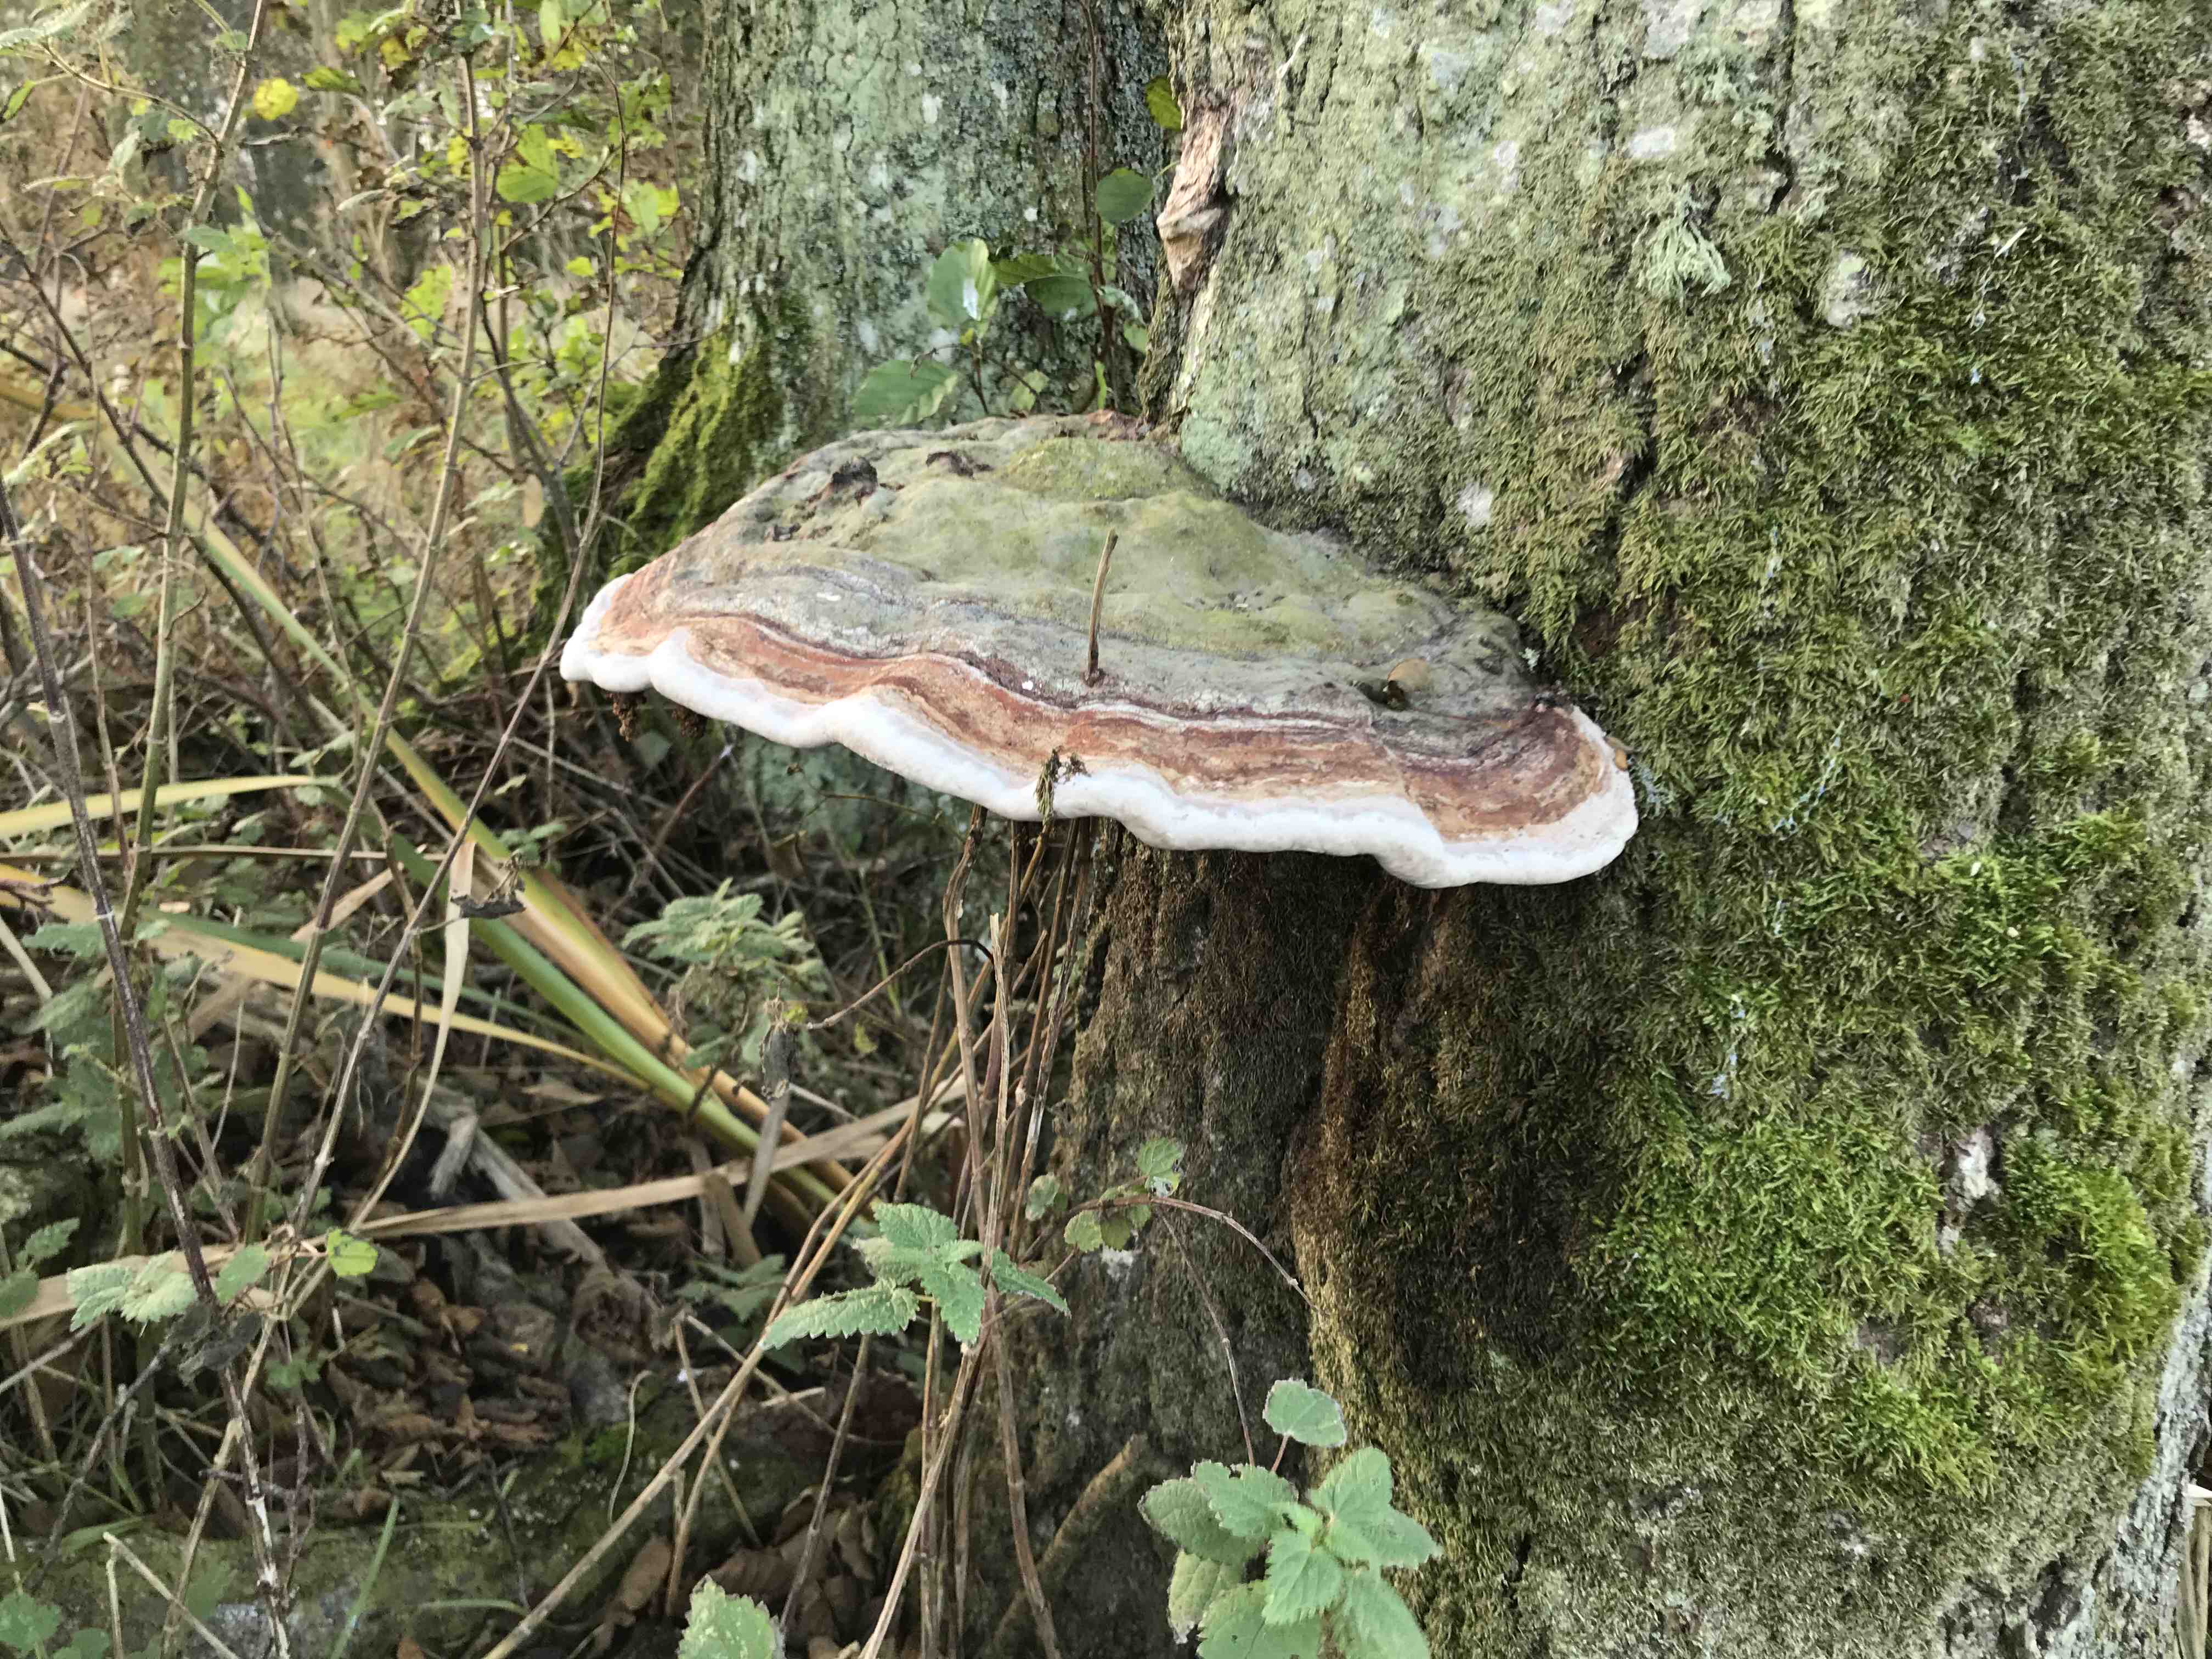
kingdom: Fungi
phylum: Basidiomycota
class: Agaricomycetes
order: Polyporales
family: Fomitopsidaceae
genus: Fomitopsis
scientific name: Fomitopsis pinicola
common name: randbæltet hovporesvamp
